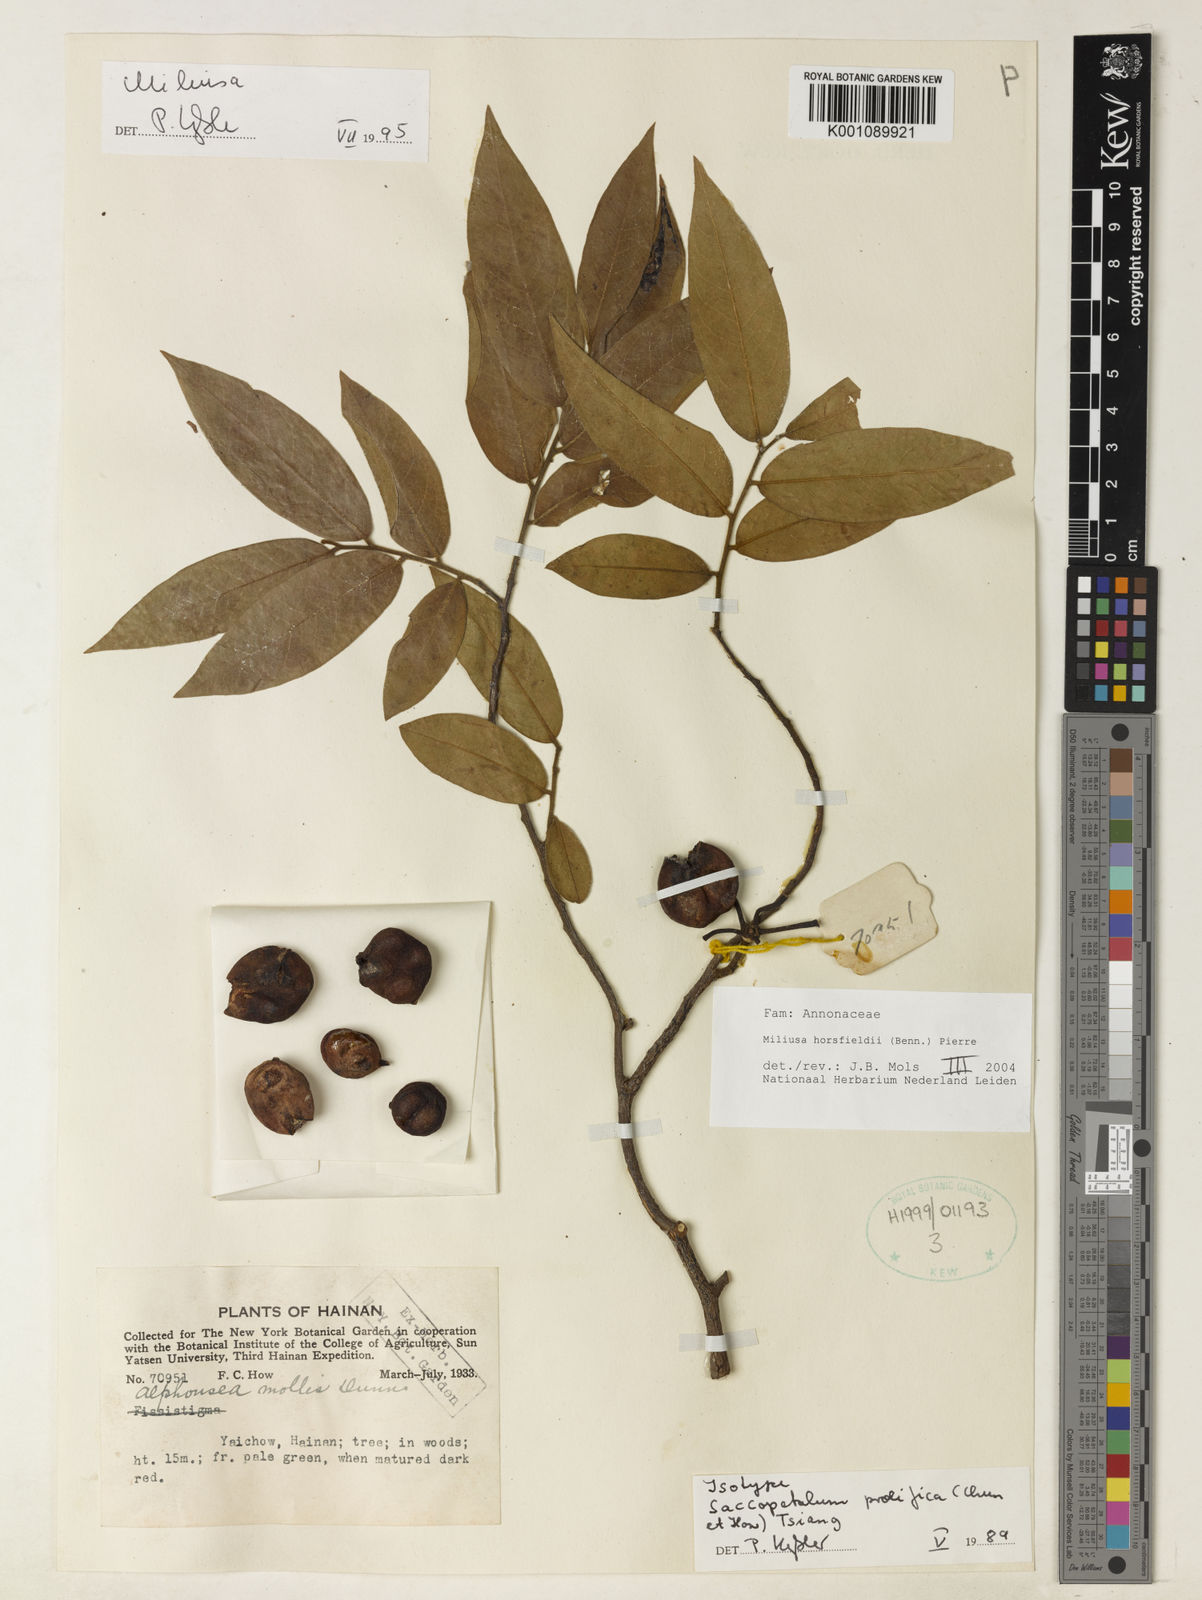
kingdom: Plantae
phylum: Tracheophyta
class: Magnoliopsida
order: Magnoliales
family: Annonaceae
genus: Miliusa
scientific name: Miliusa horsfieldii
